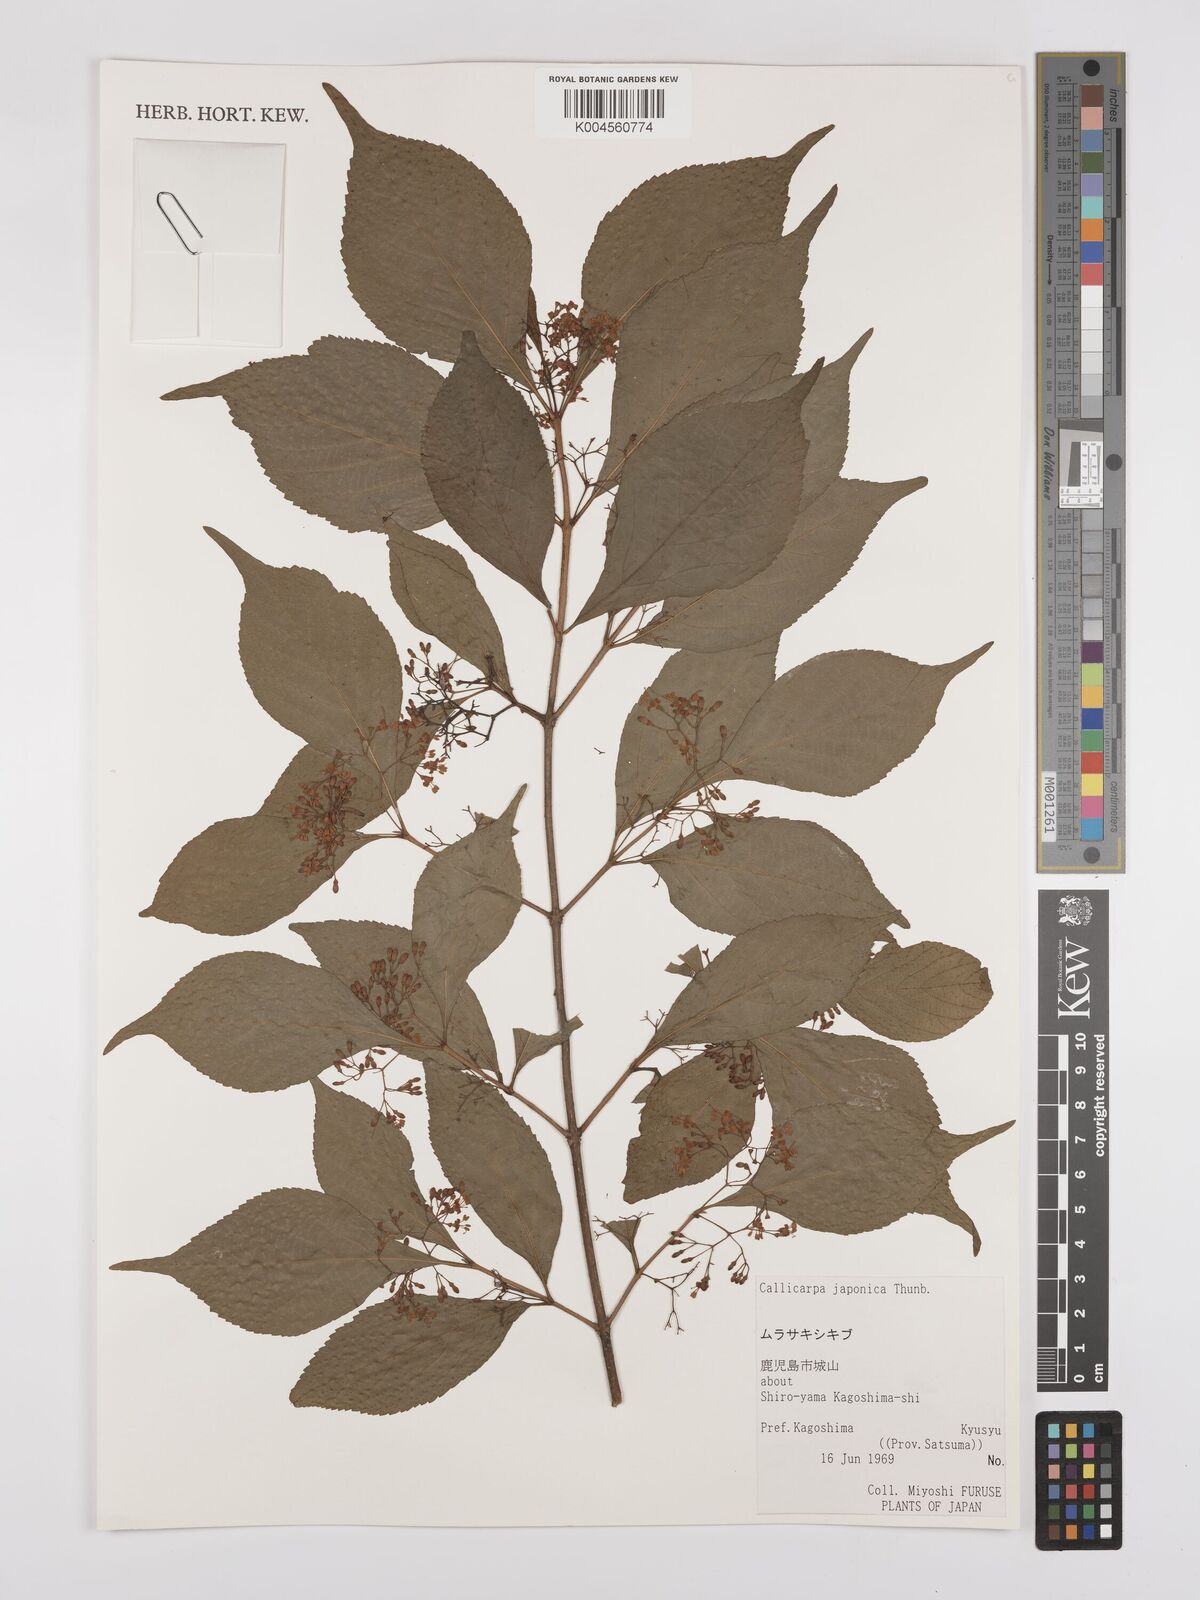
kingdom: Plantae
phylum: Tracheophyta
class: Magnoliopsida
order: Lamiales
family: Lamiaceae
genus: Callicarpa
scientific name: Callicarpa japonica
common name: Japanese beauty-berry
